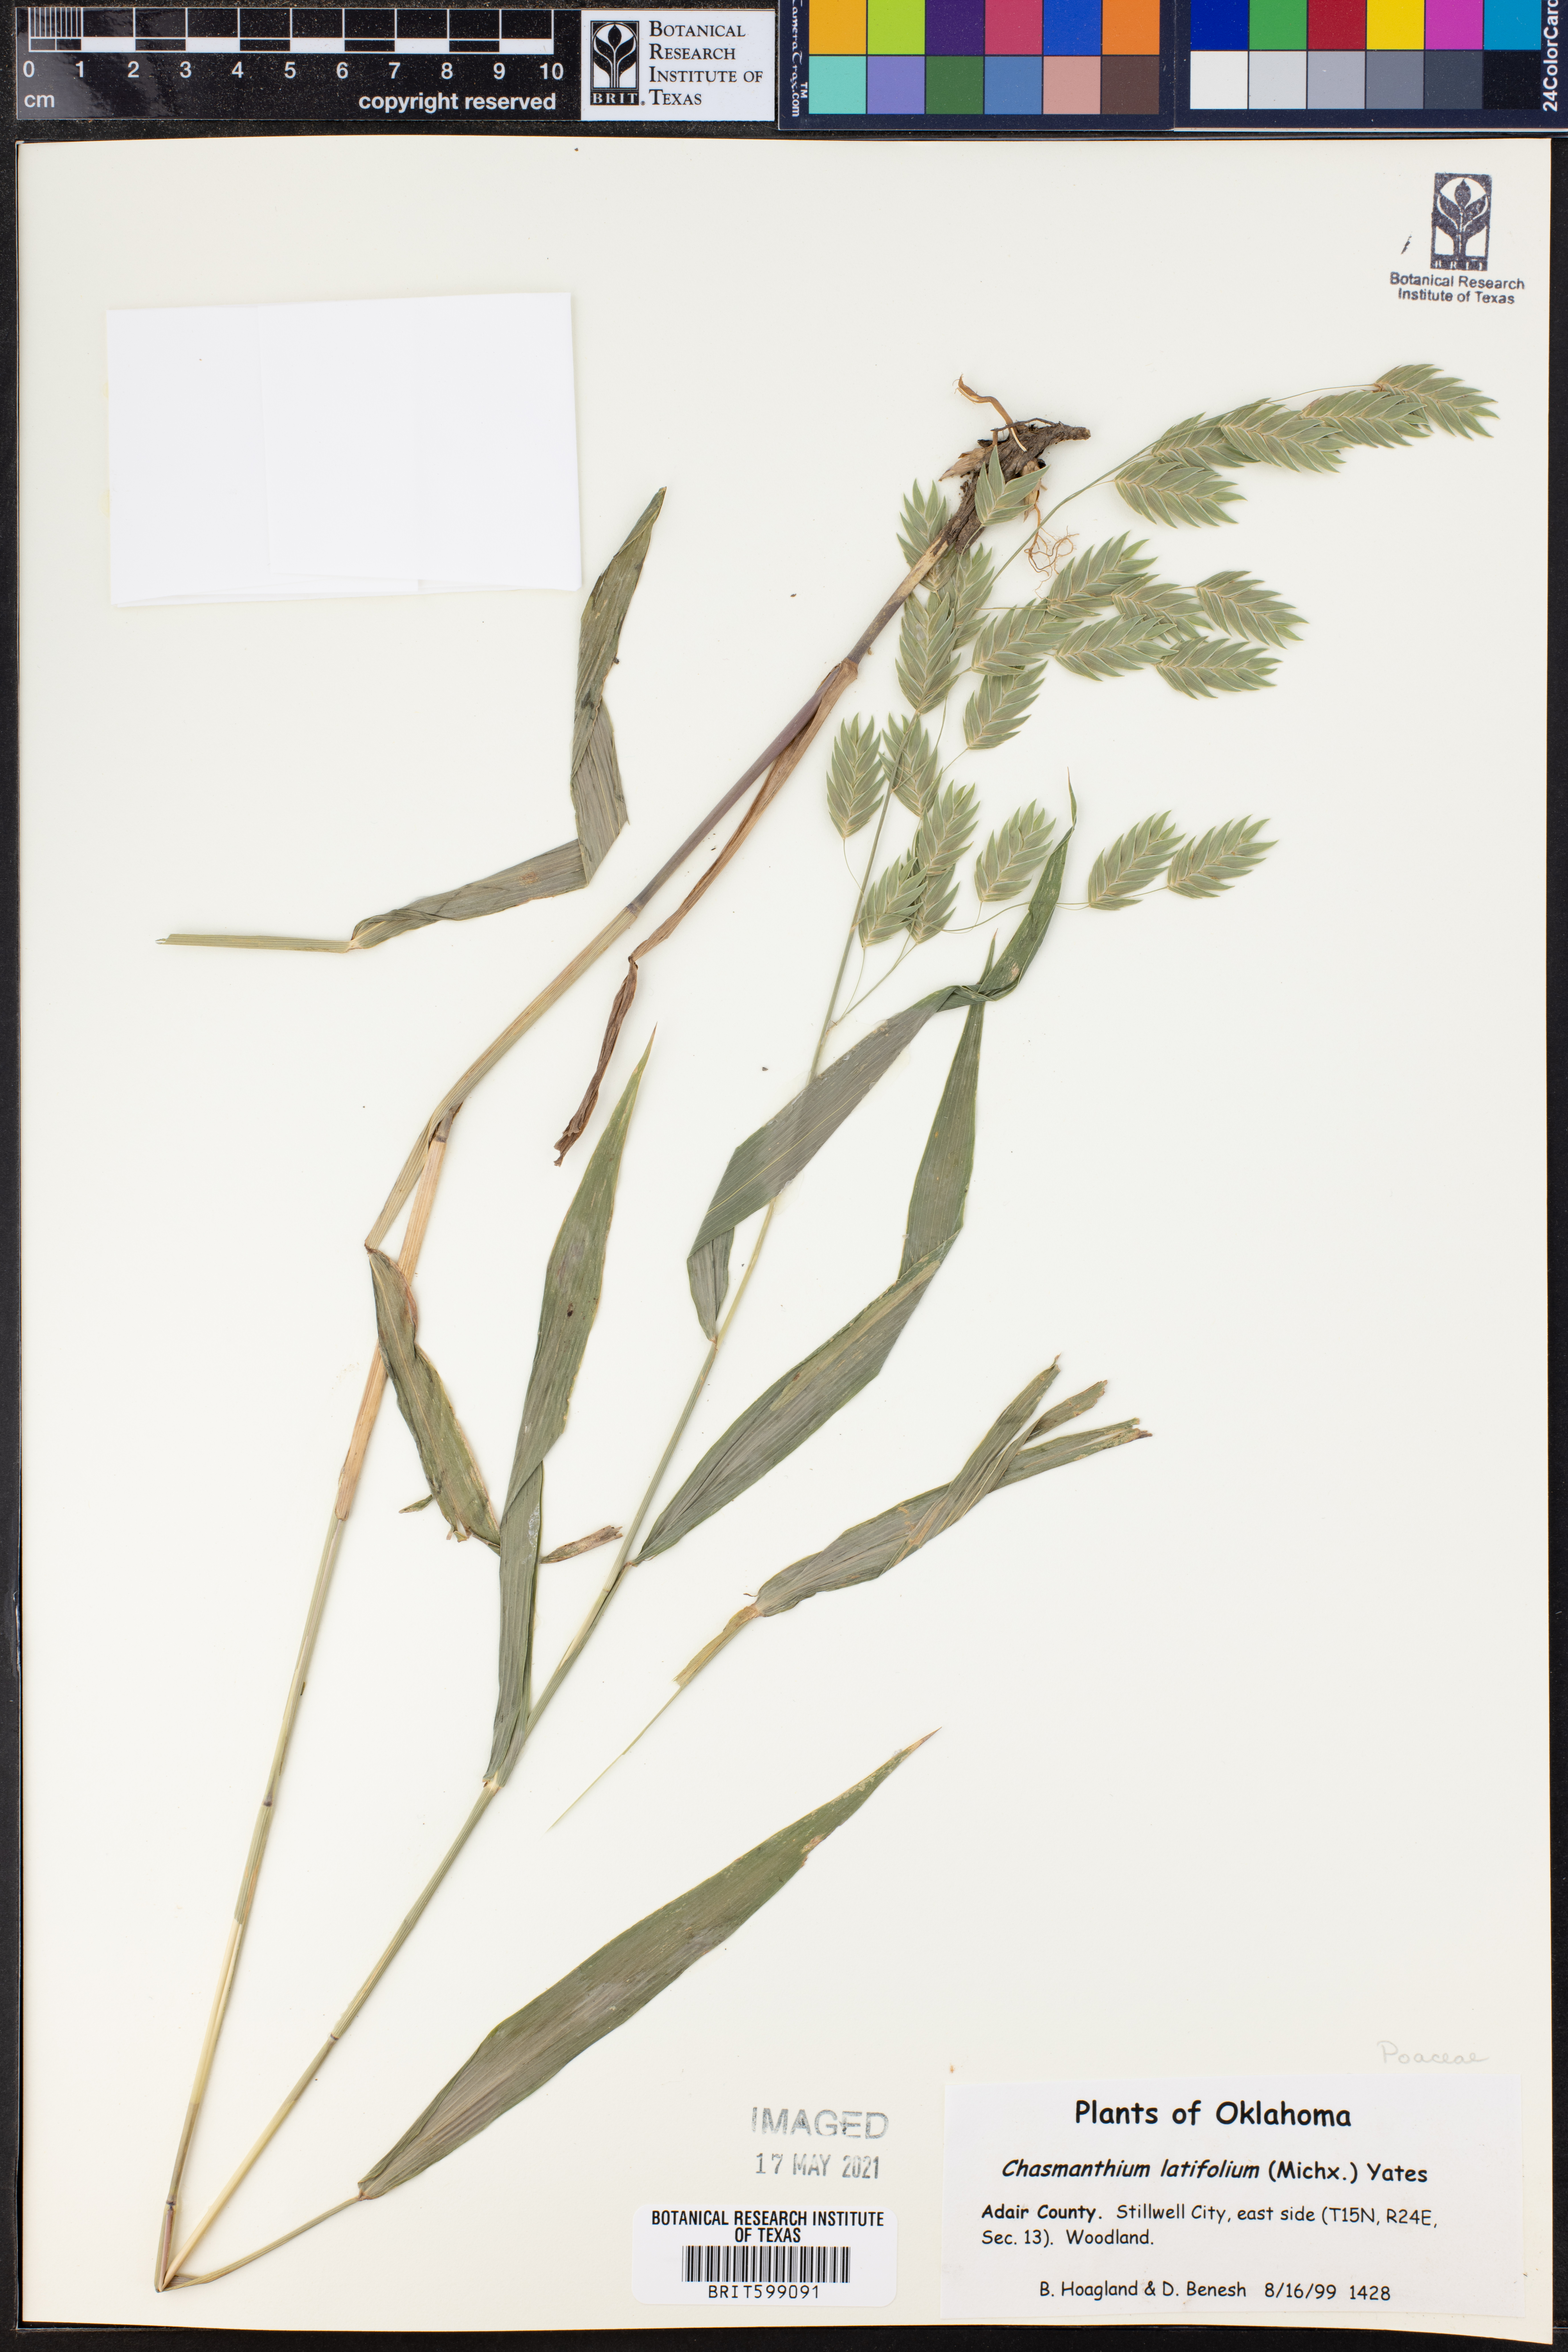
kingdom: Plantae
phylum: Tracheophyta
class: Liliopsida
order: Poales
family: Poaceae
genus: Chasmanthium
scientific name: Chasmanthium latifolium
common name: Broad-leaved chasmanthium
